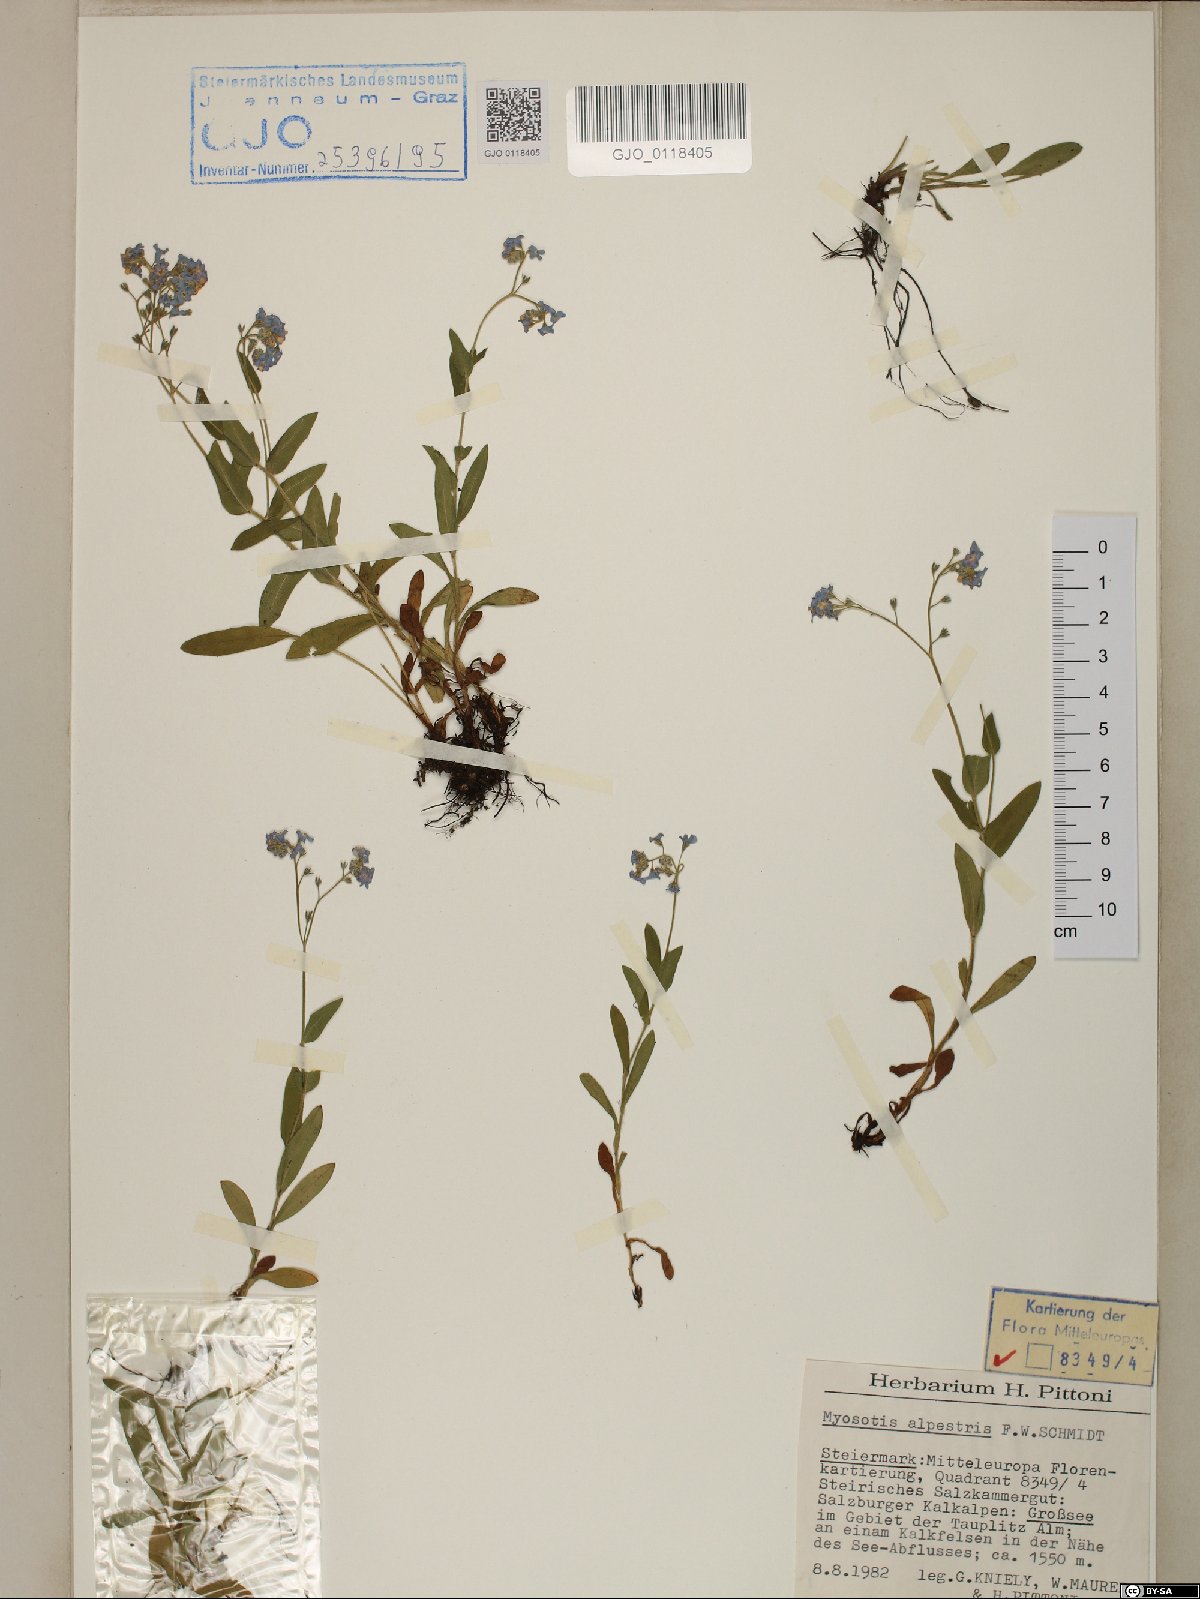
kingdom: Plantae
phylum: Tracheophyta
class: Magnoliopsida
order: Boraginales
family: Boraginaceae
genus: Myosotis
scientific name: Myosotis alpestris
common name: Alpine forget-me-not
